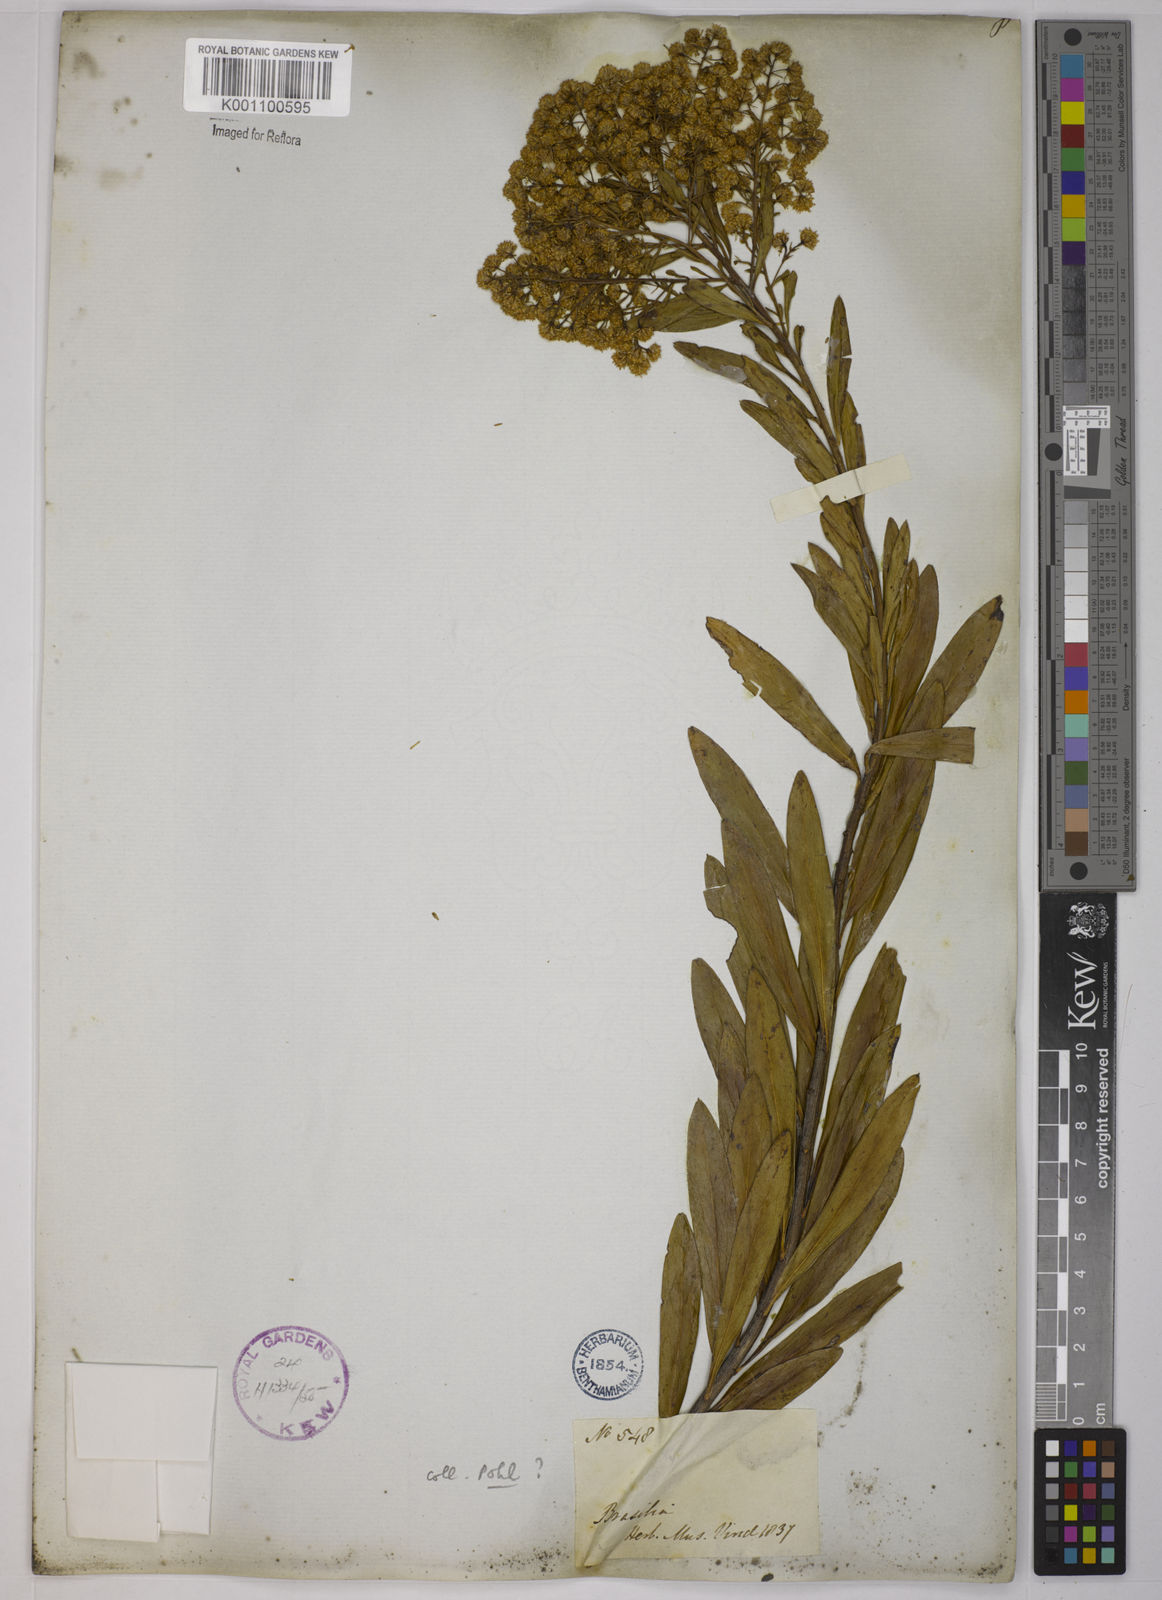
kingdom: Plantae
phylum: Tracheophyta
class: Magnoliopsida
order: Asterales
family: Asteraceae
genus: Baccharis
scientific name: Baccharis ligustrina
